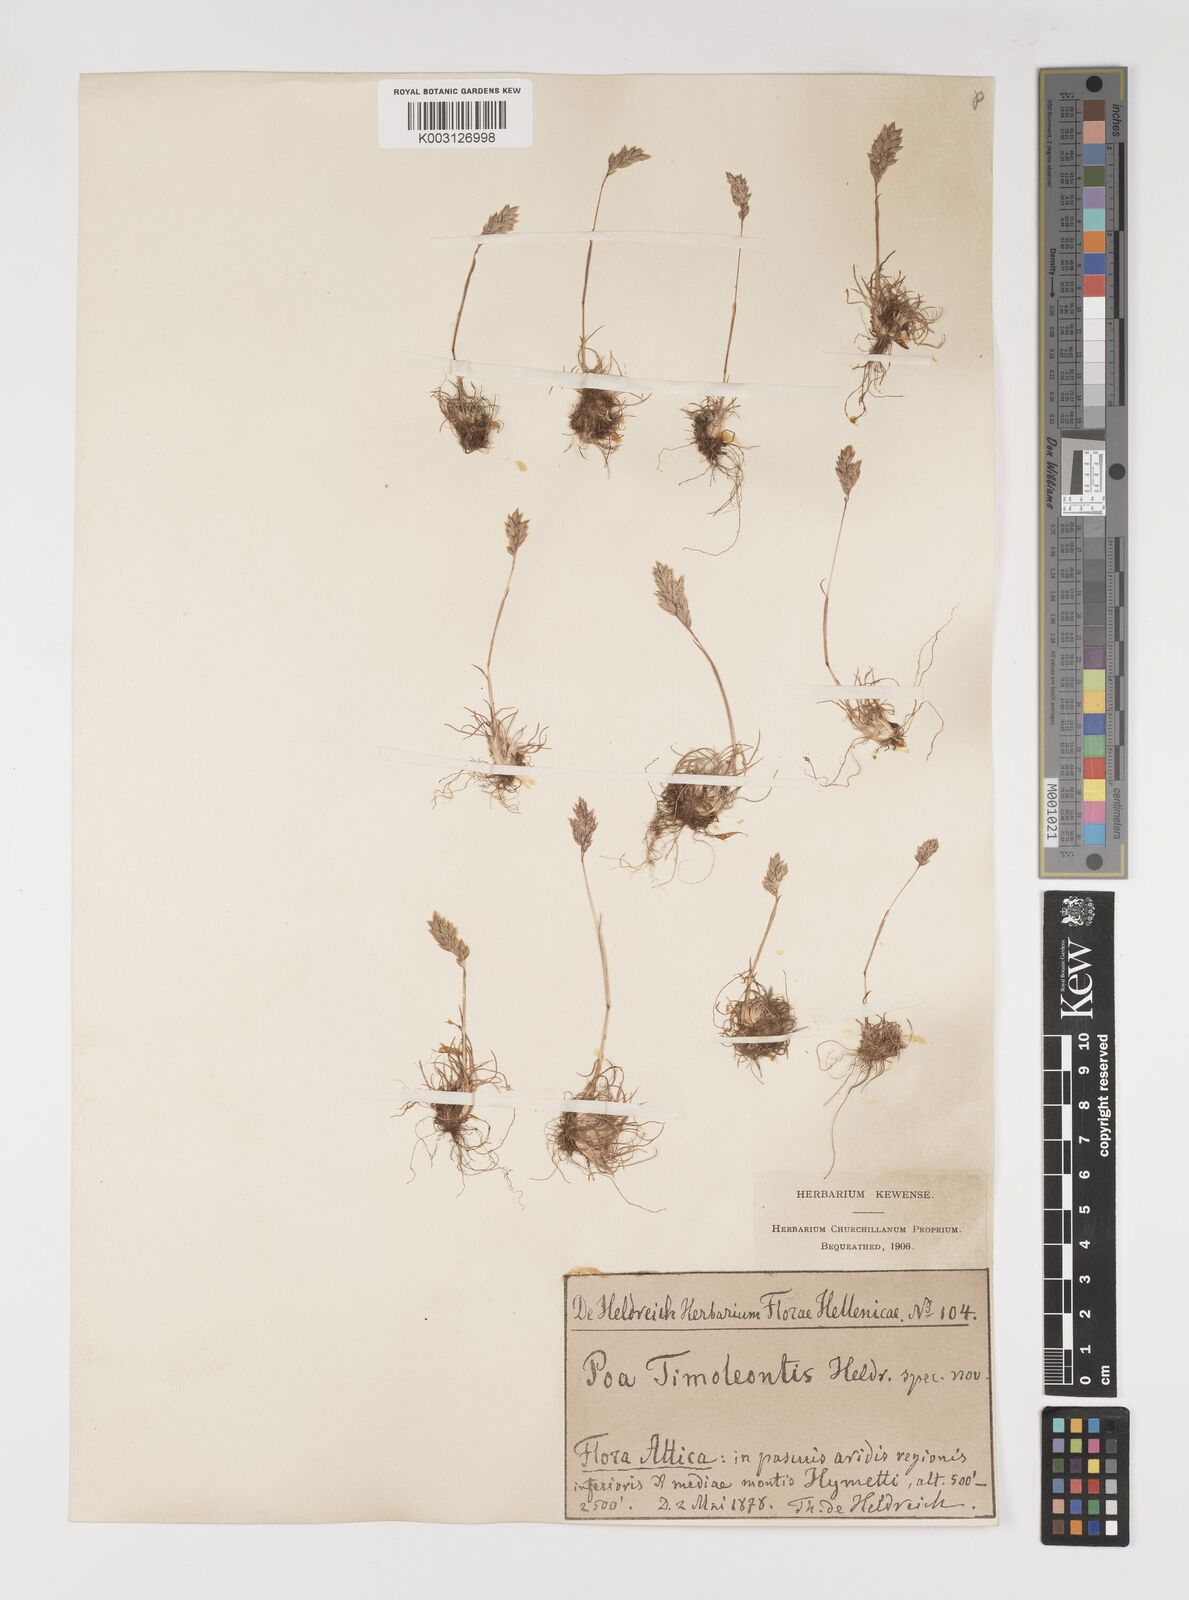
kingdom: Plantae
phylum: Tracheophyta
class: Liliopsida
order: Poales
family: Poaceae
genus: Poa
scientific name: Poa timoleontis
